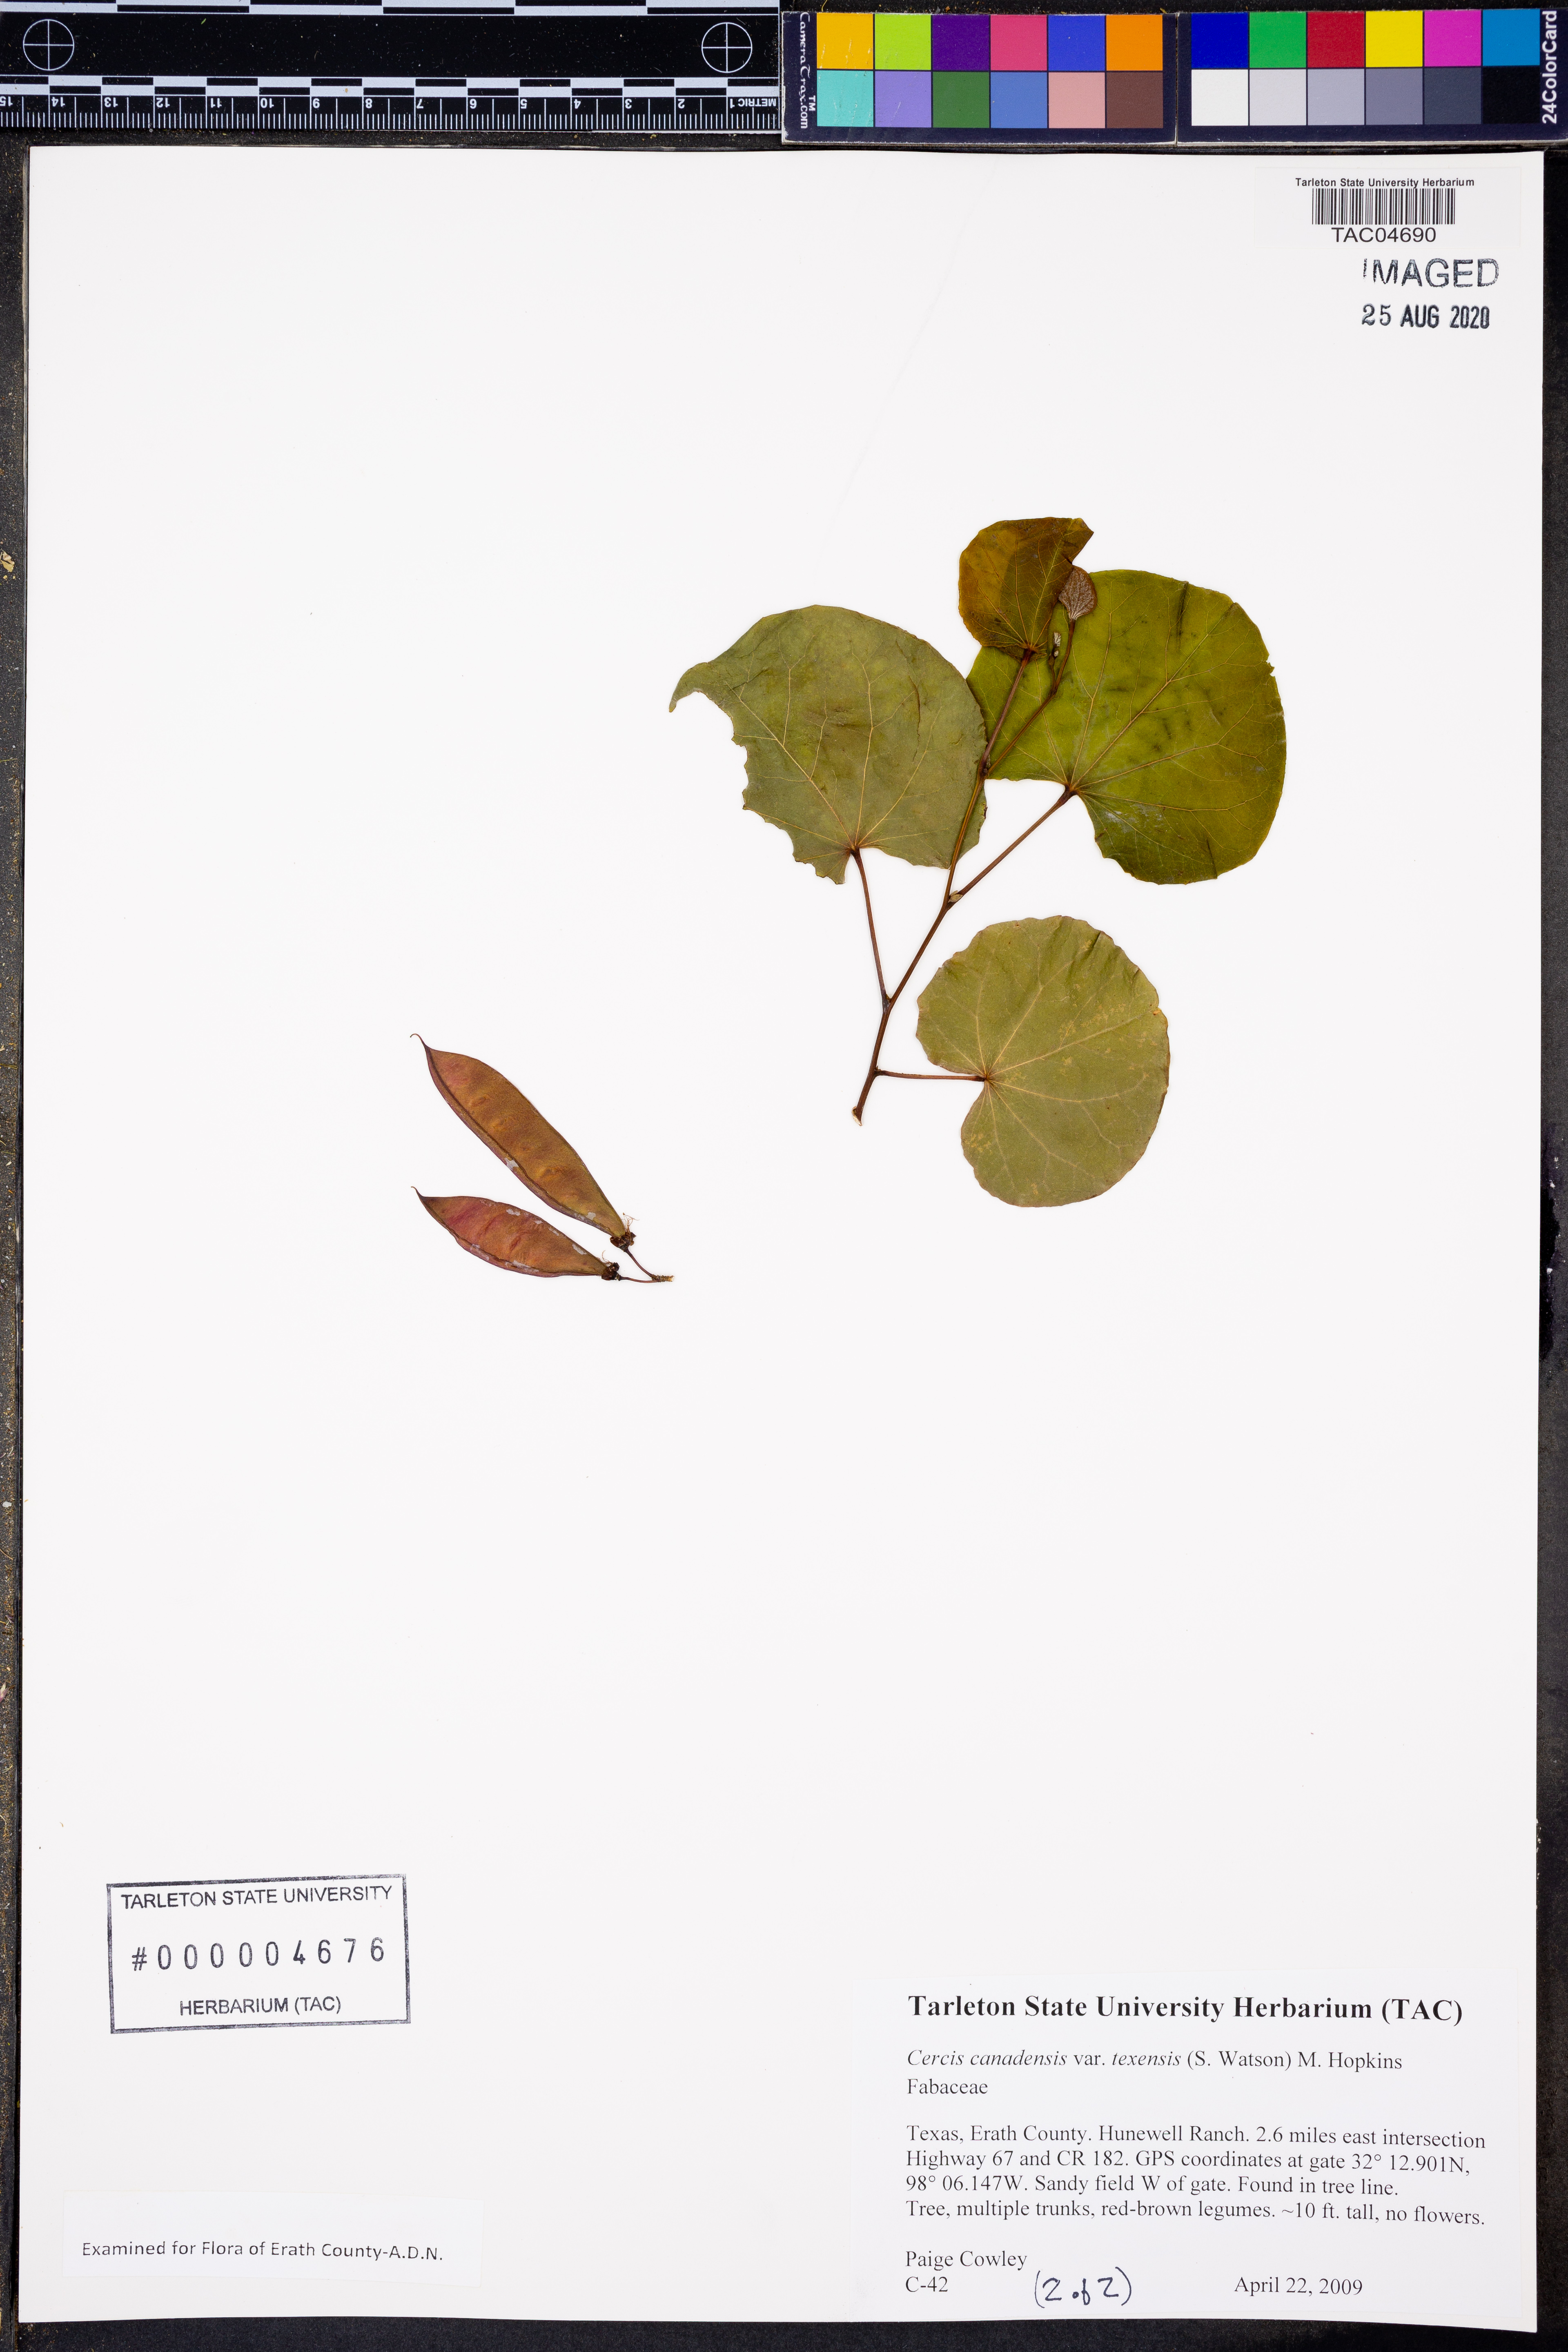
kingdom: Plantae
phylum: Tracheophyta
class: Magnoliopsida
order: Fabales
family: Fabaceae
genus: Cercis
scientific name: Cercis canadensis
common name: Eastern redbud
